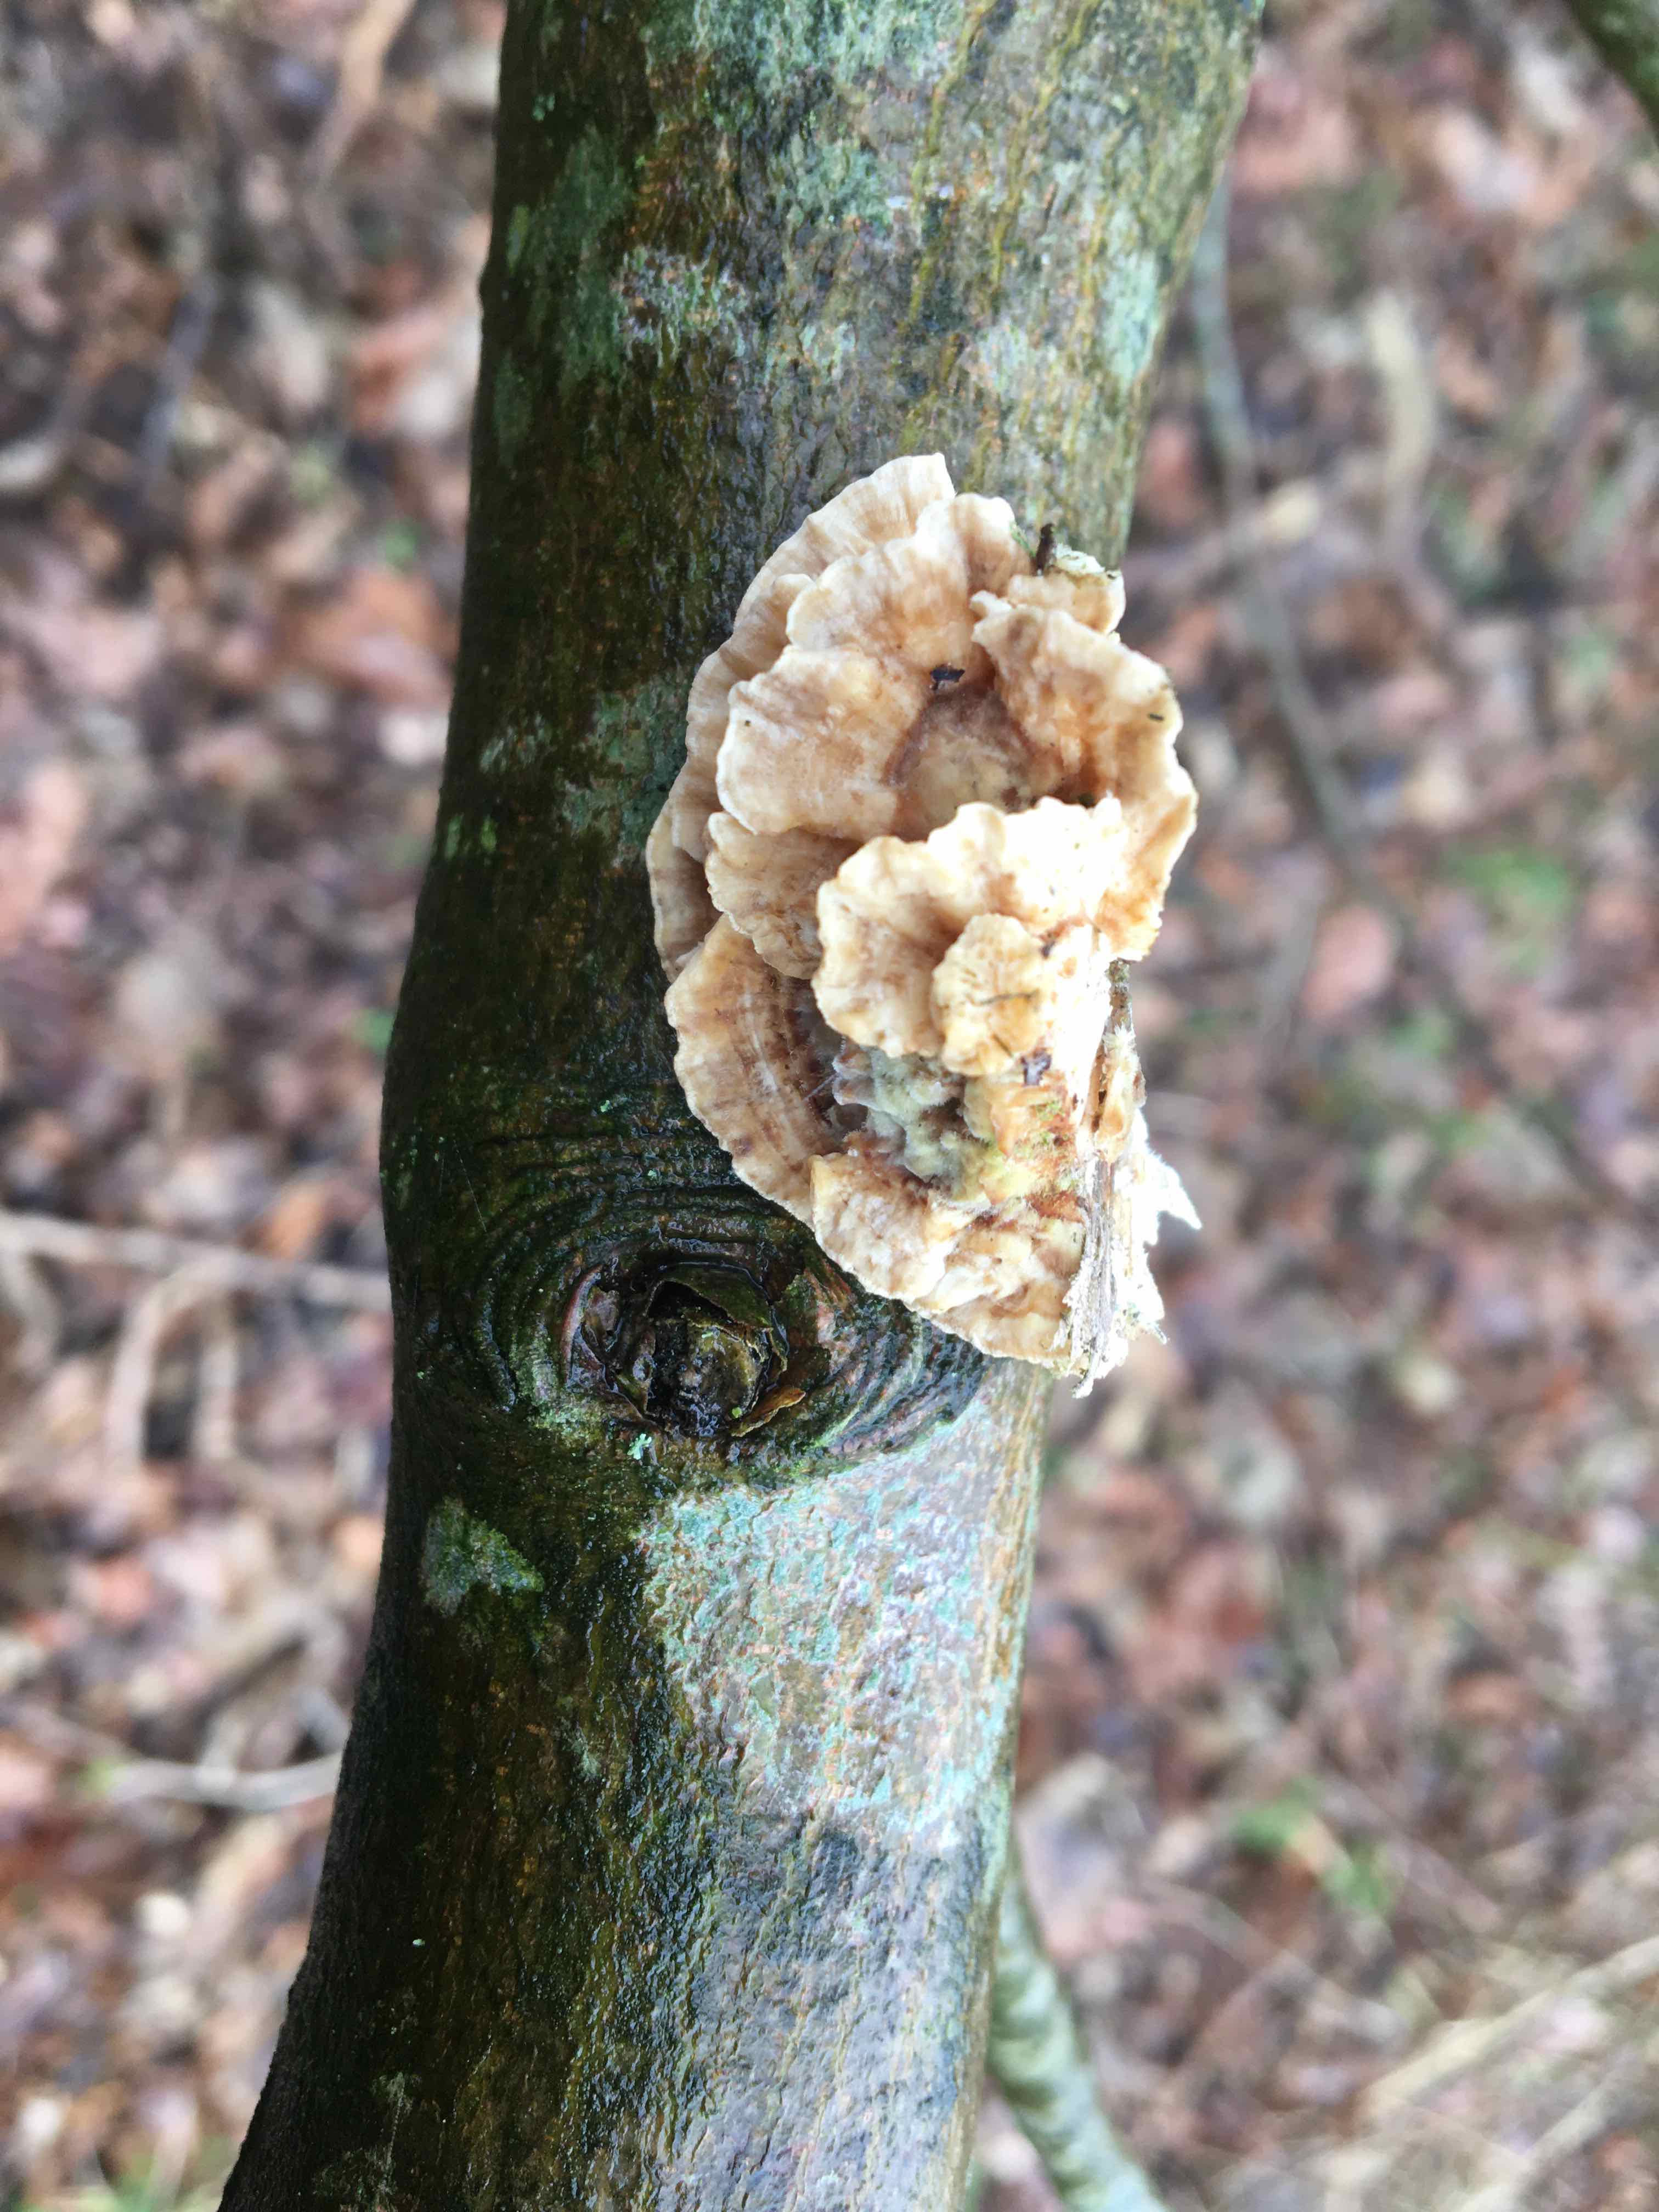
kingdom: Fungi
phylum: Basidiomycota
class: Agaricomycetes
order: Polyporales
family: Polyporaceae
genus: Trametes
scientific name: Trametes
